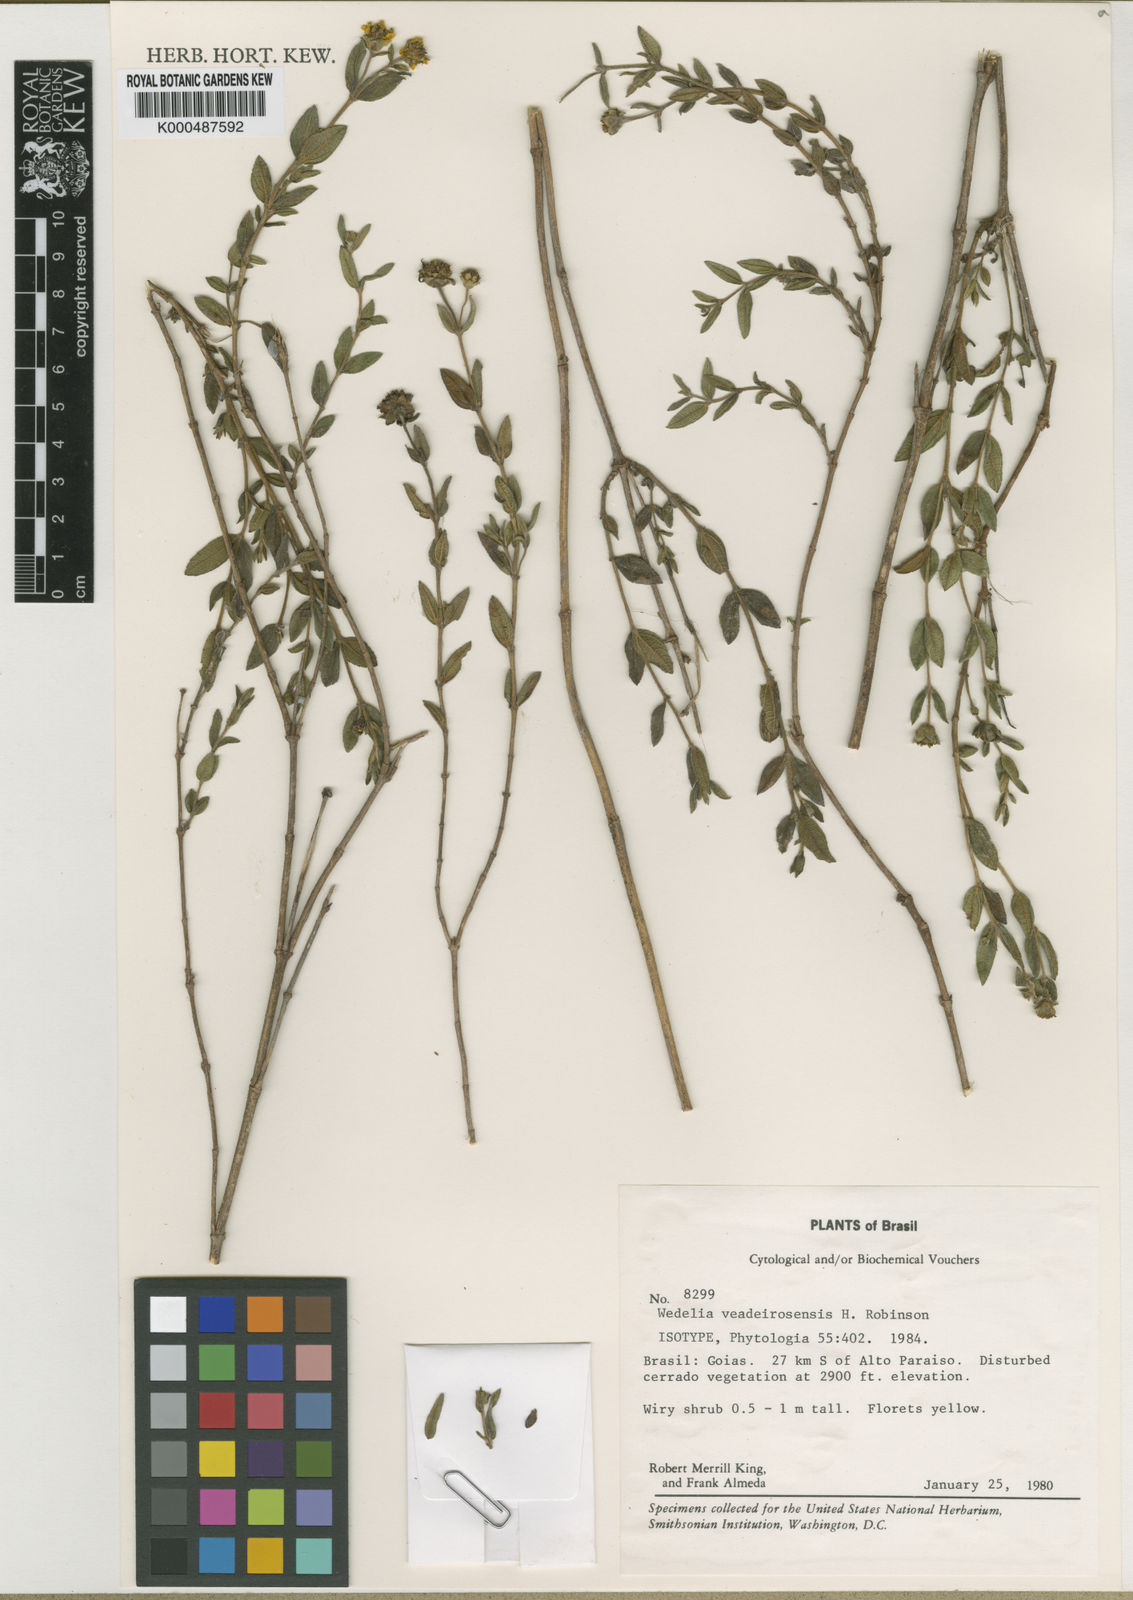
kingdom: Plantae
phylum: Tracheophyta
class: Magnoliopsida
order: Asterales
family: Asteraceae
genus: Wedelia
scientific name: Wedelia veadeirosensis
